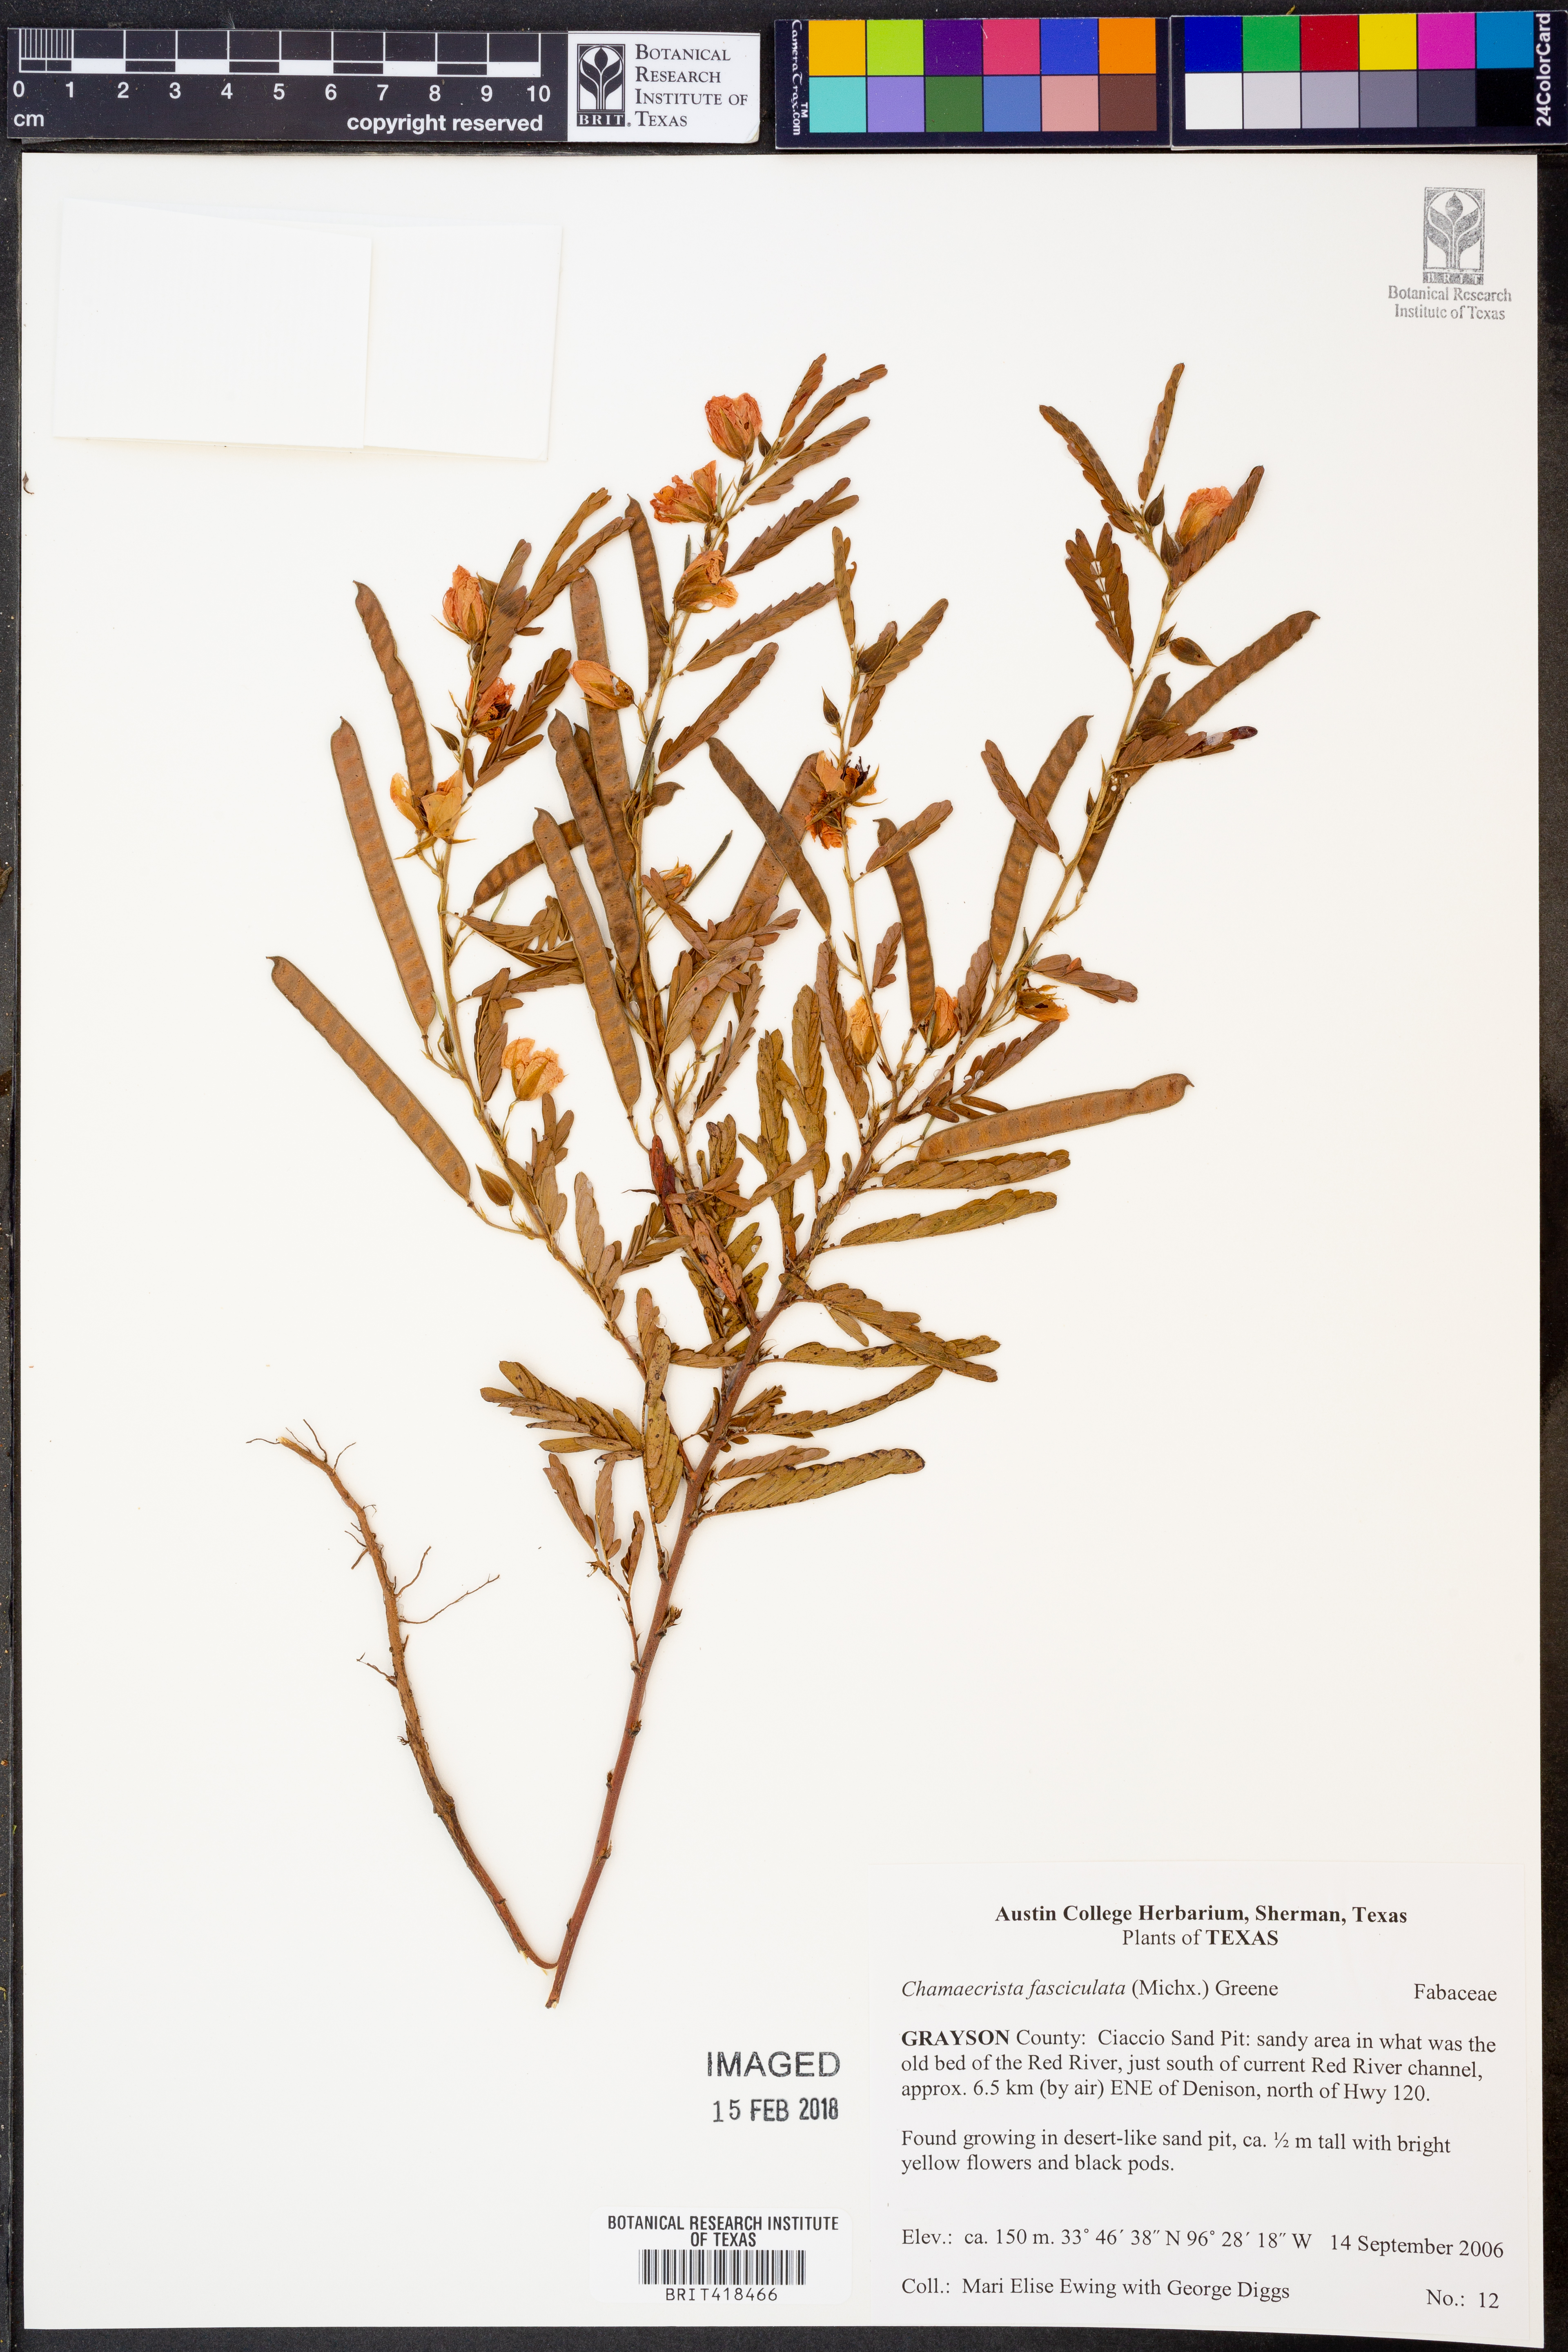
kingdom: Plantae
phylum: Tracheophyta
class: Magnoliopsida
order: Fabales
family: Fabaceae
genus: Chamaecrista
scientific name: Chamaecrista fasciculata
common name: Golden cassia
